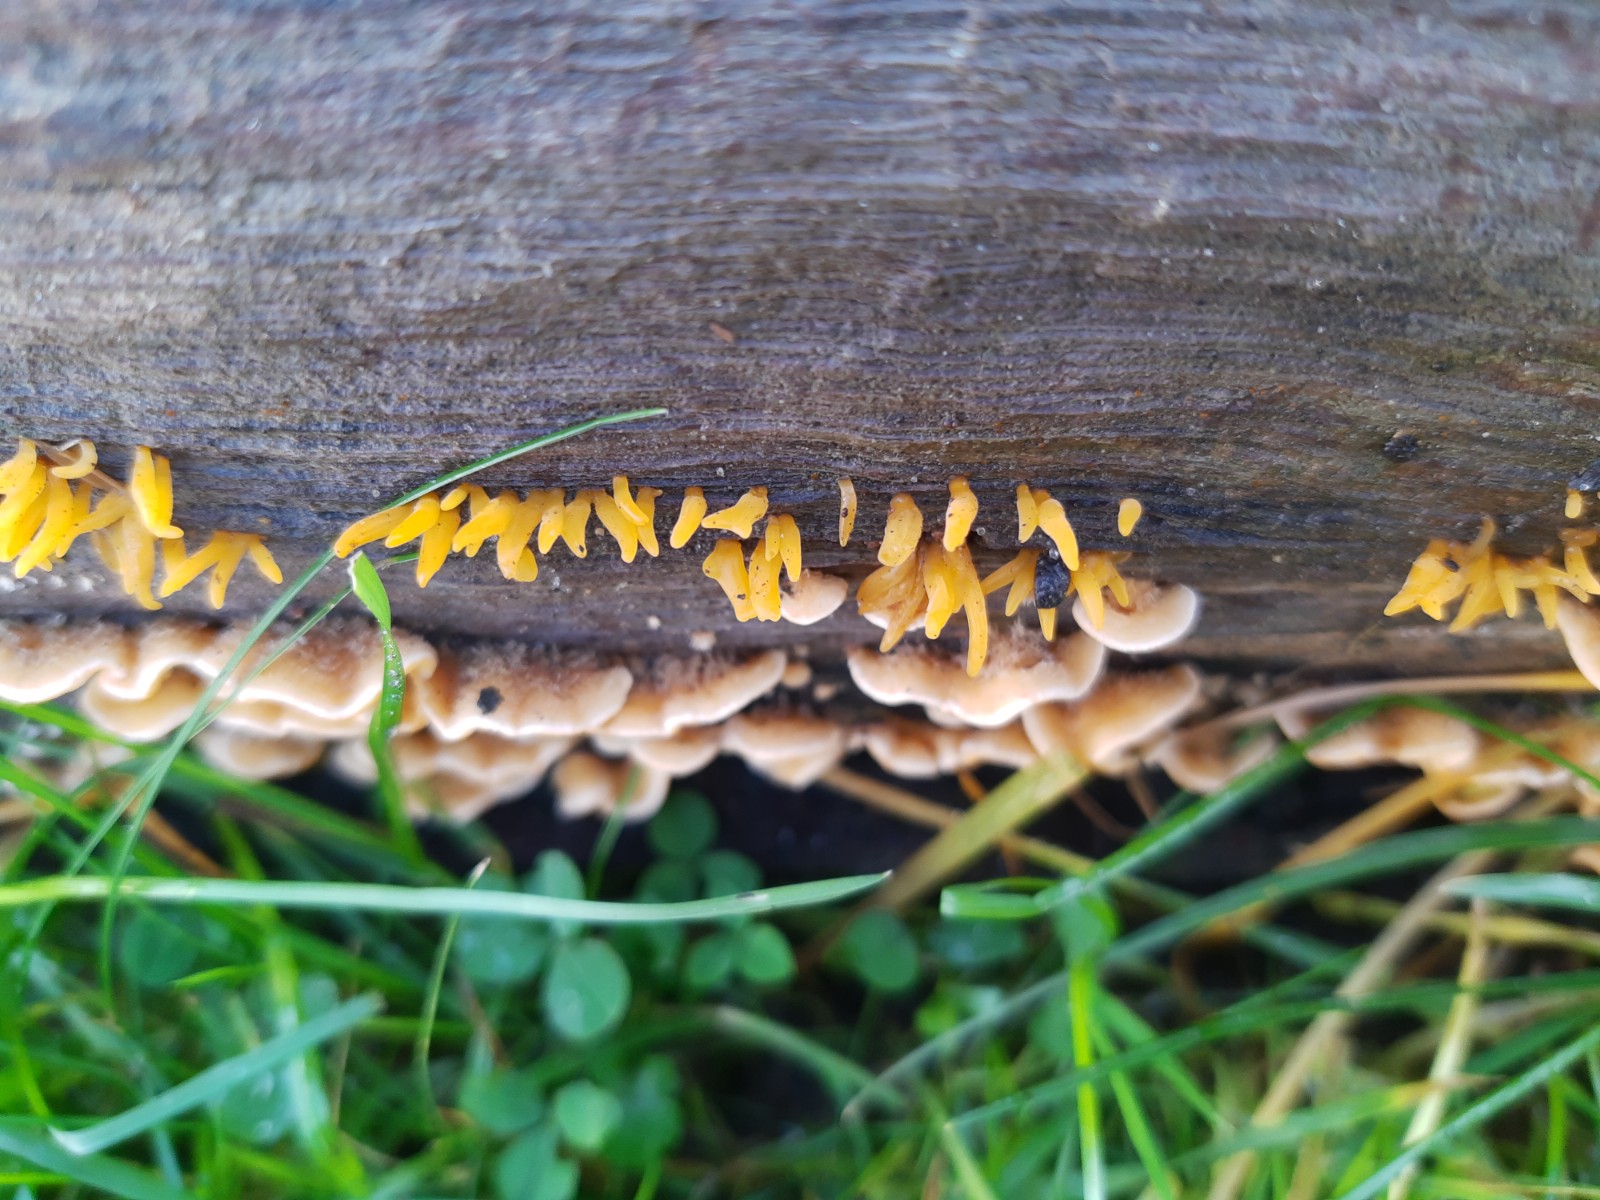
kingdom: Fungi
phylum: Basidiomycota
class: Dacrymycetes
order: Dacrymycetales
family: Dacrymycetaceae
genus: Calocera
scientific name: Calocera cornea
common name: liden guldgaffel
